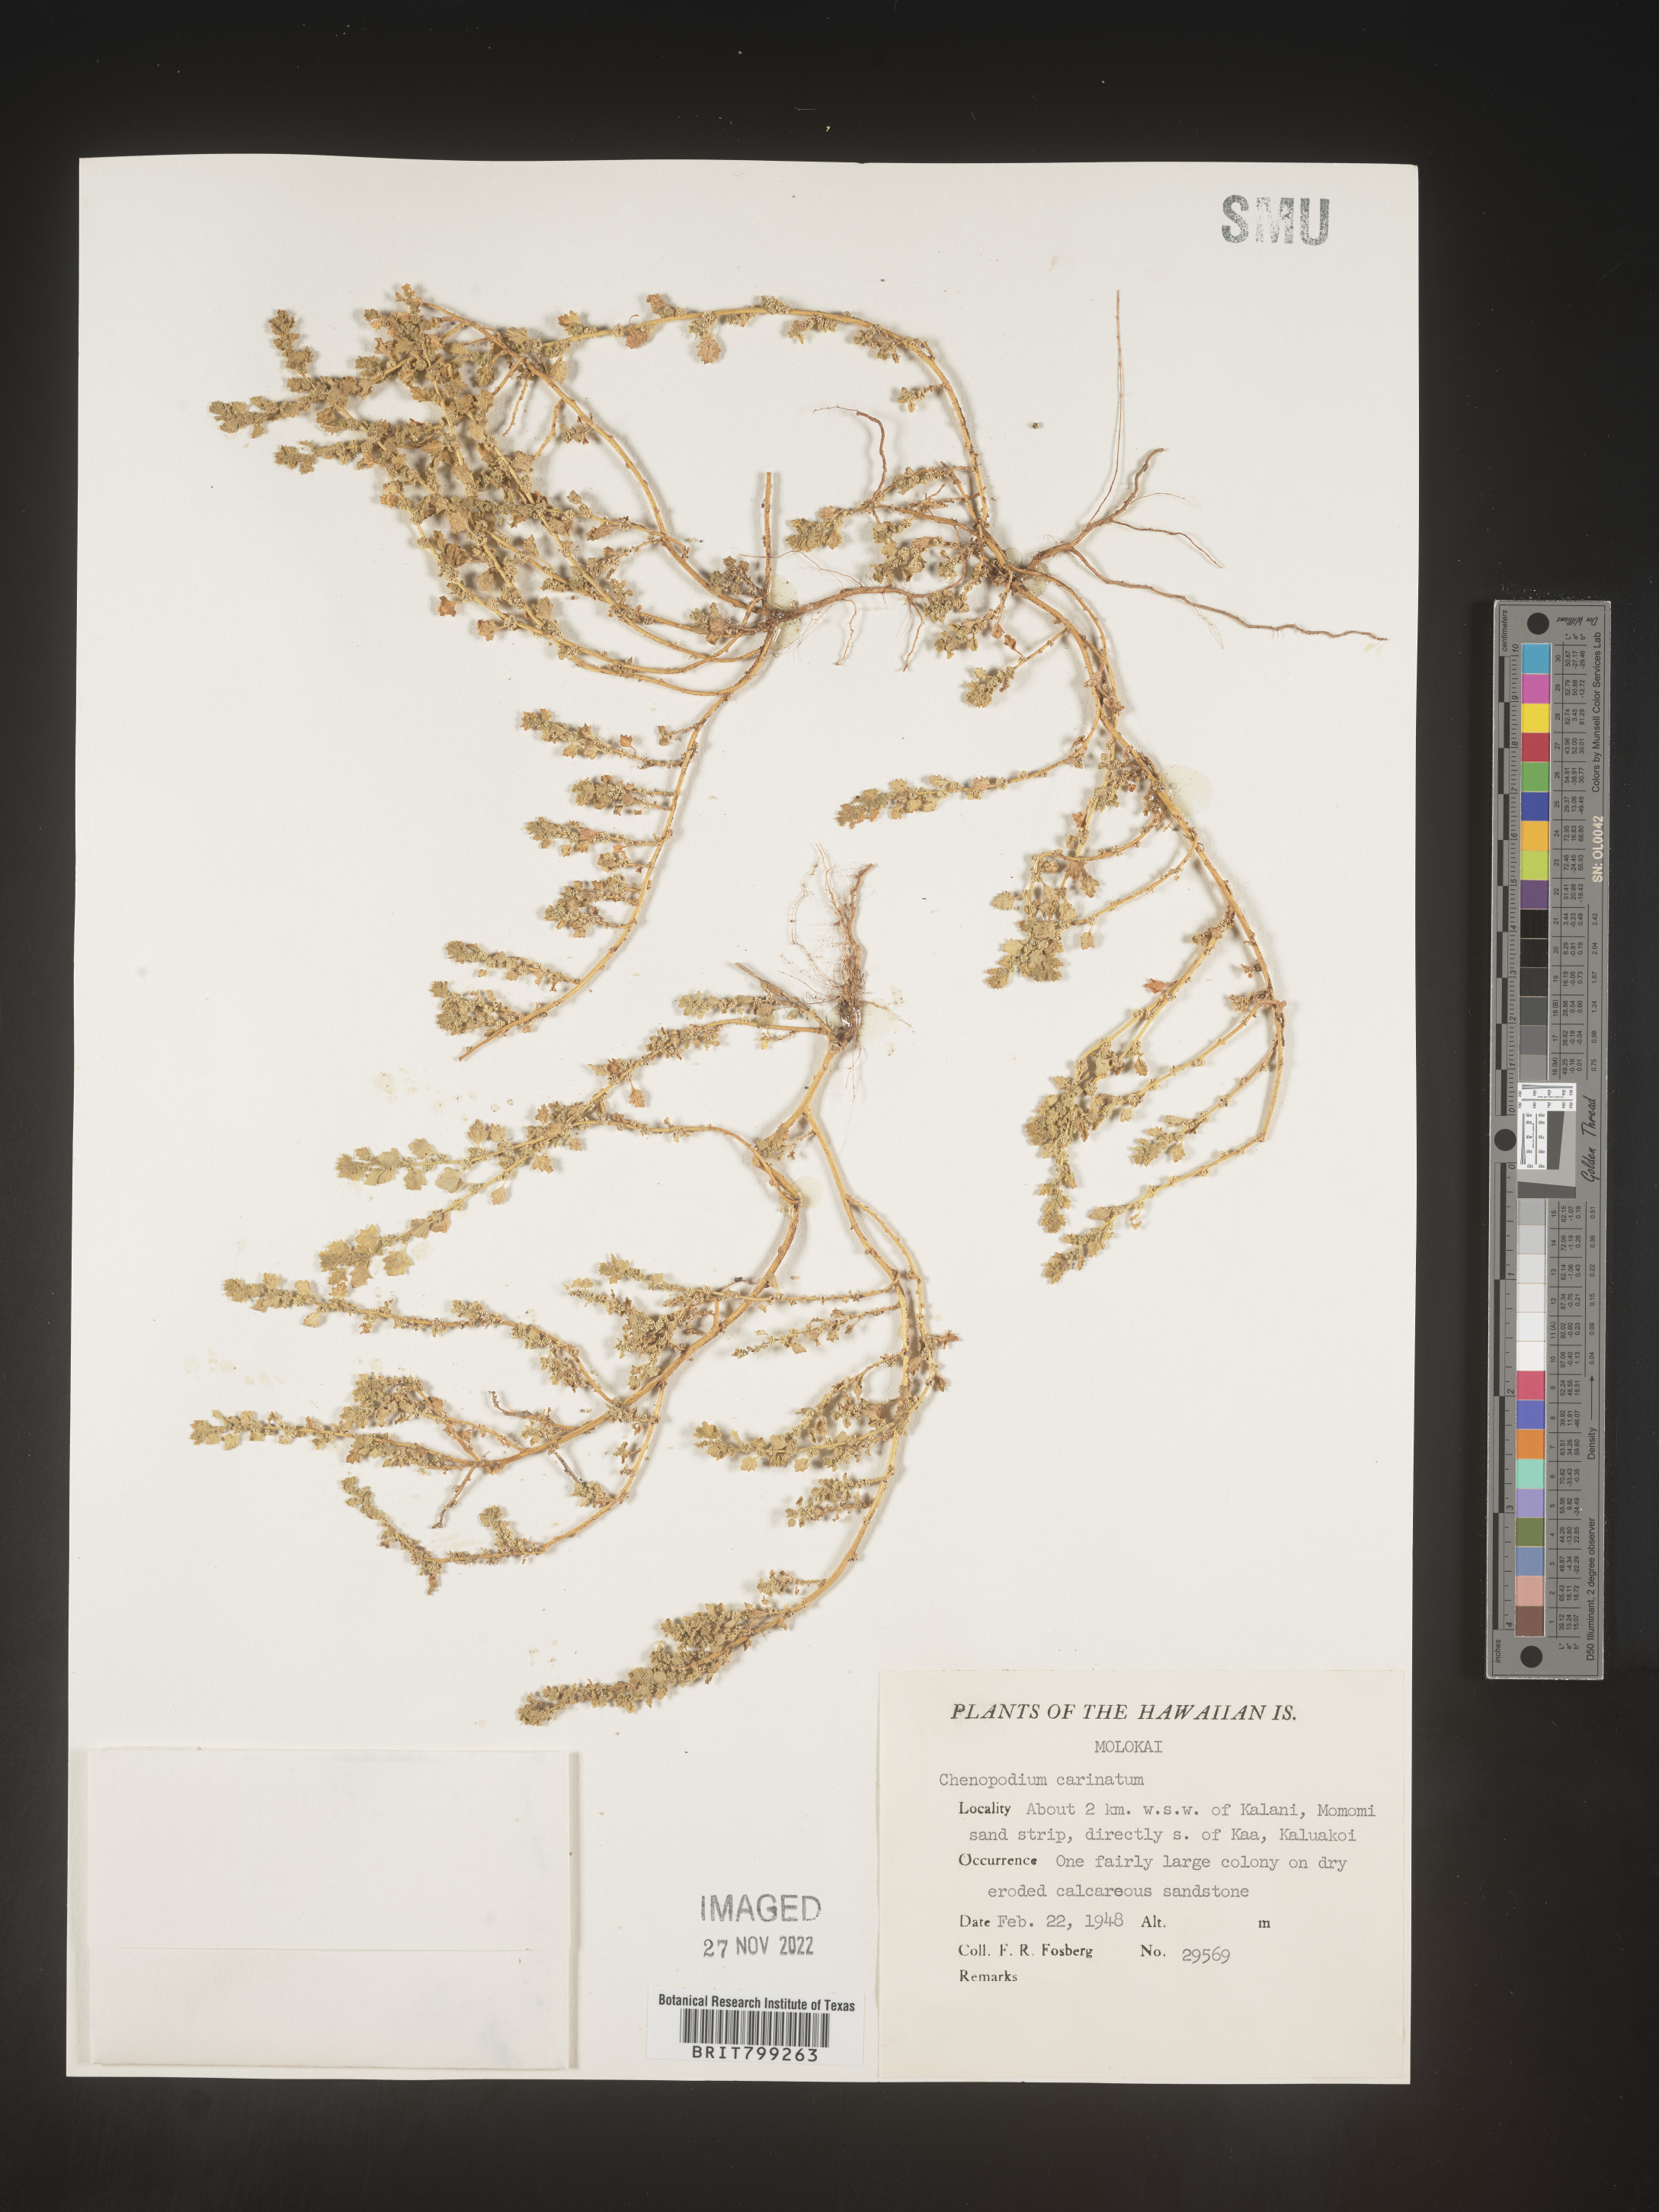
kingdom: Plantae
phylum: Tracheophyta
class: Magnoliopsida
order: Caryophyllales
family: Amaranthaceae
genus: Chenopodium
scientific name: Chenopodium
